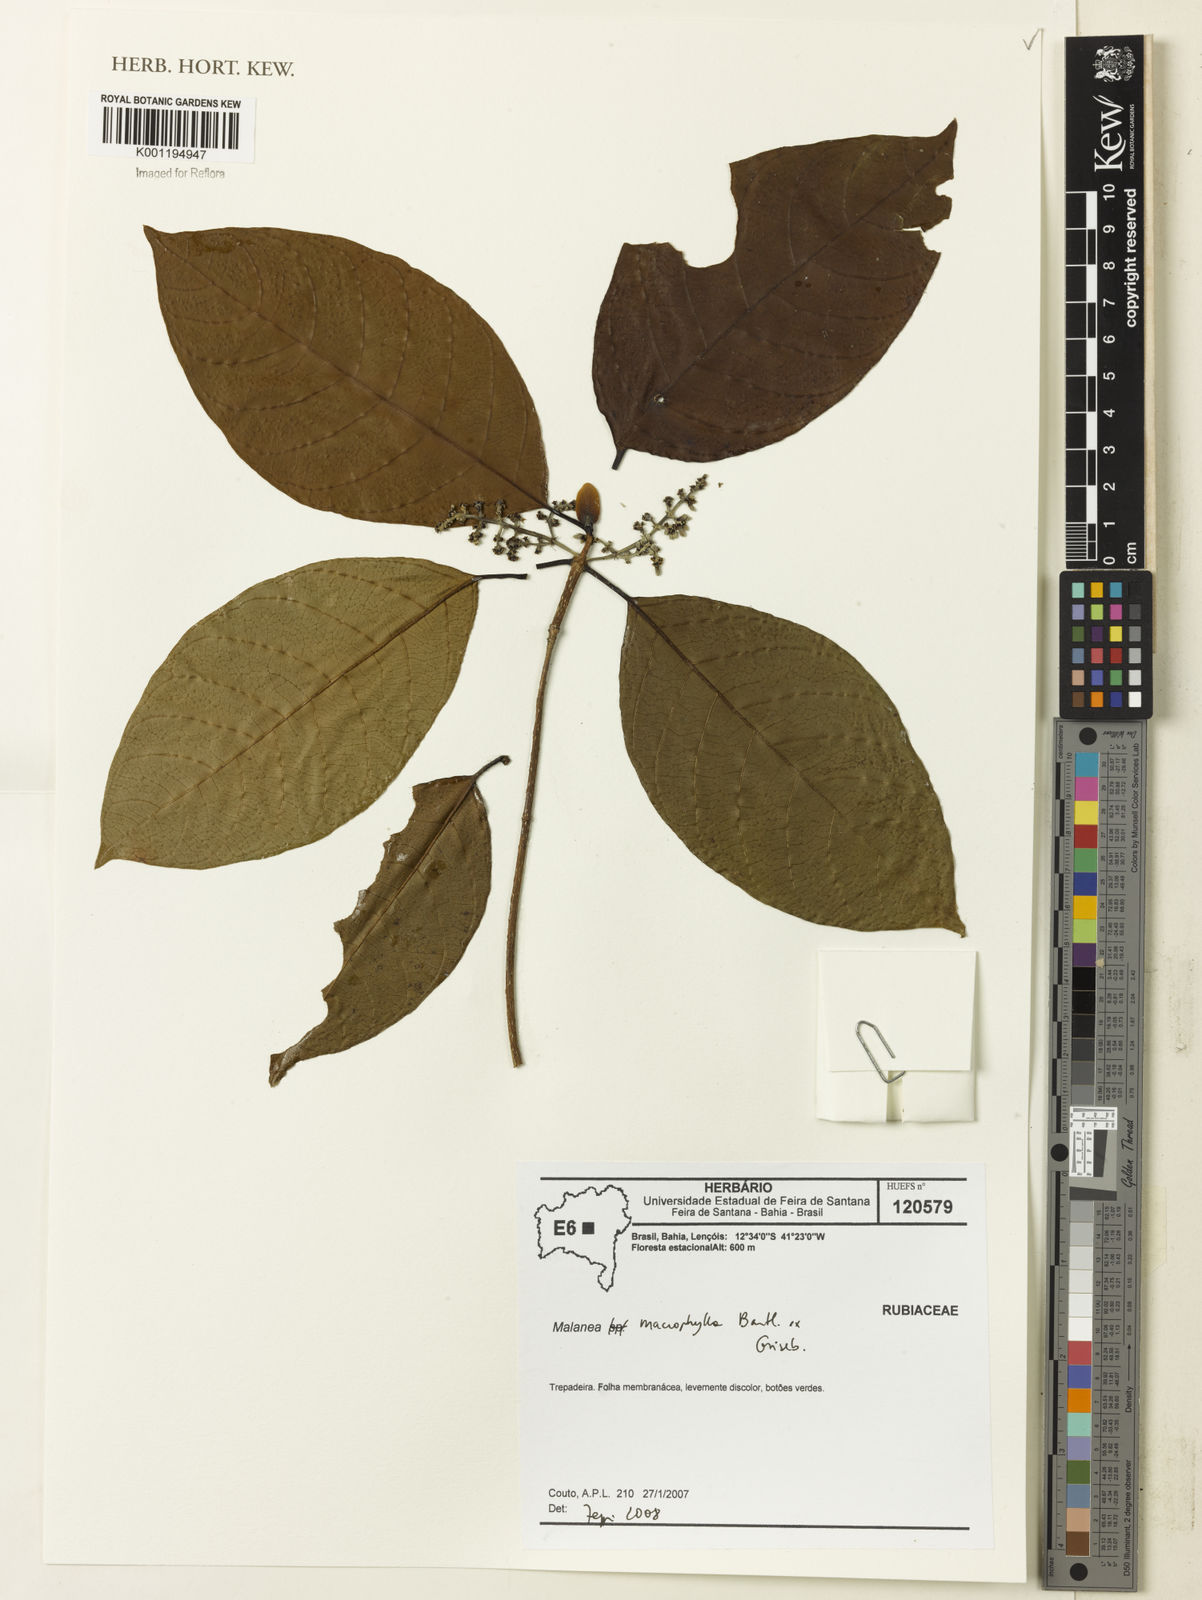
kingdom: Plantae
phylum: Tracheophyta
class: Magnoliopsida
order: Gentianales
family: Rubiaceae
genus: Malanea
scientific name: Malanea glabra
